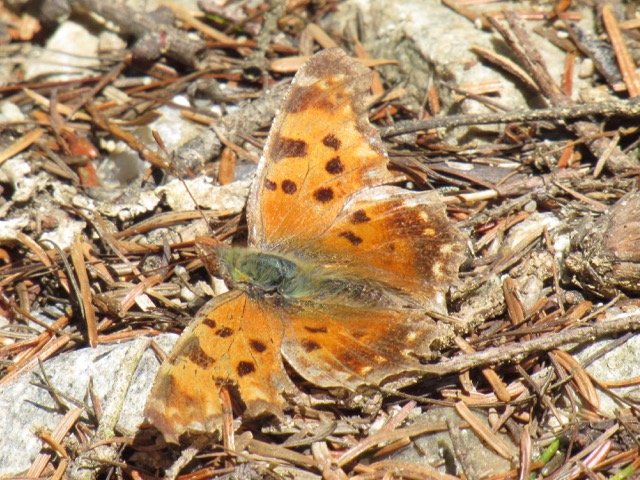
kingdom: Animalia
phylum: Arthropoda
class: Insecta
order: Lepidoptera
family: Nymphalidae
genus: Polygonia
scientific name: Polygonia comma
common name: Eastern Comma
